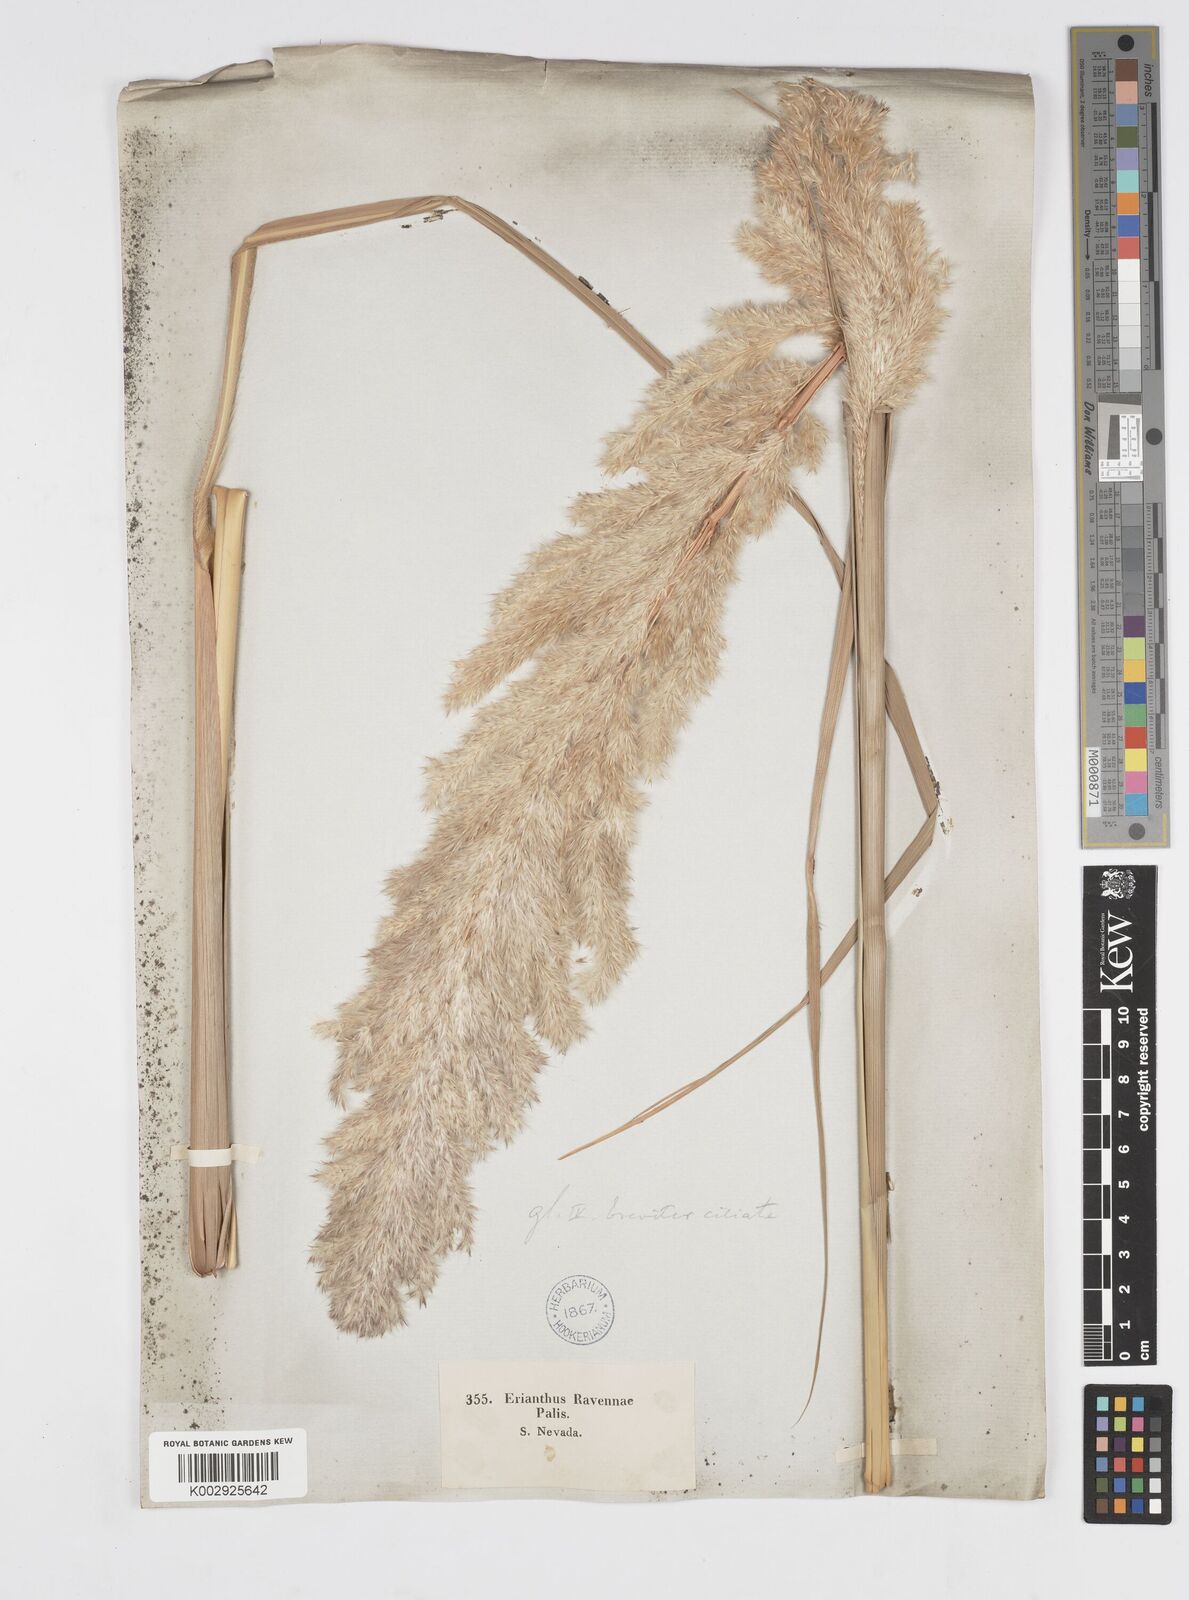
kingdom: Plantae
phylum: Tracheophyta
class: Liliopsida
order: Poales
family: Poaceae
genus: Tripidium
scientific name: Tripidium ravennae
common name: Ravenna grass
